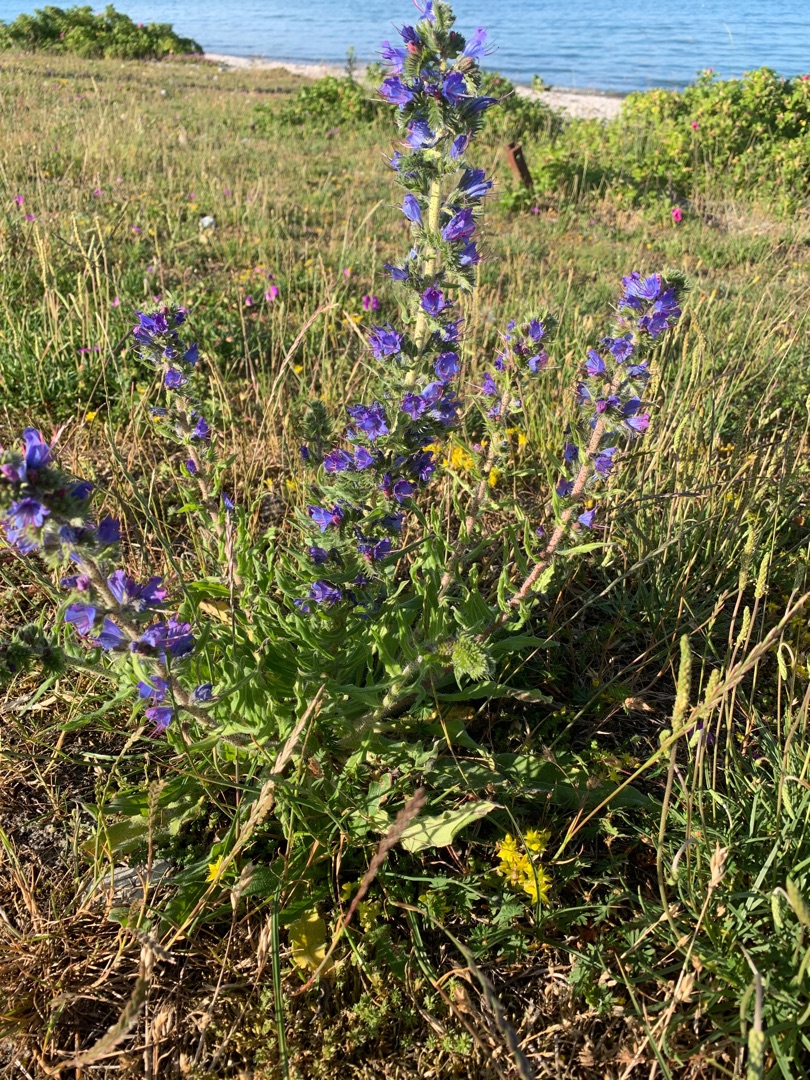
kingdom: Plantae
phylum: Tracheophyta
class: Magnoliopsida
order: Boraginales
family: Boraginaceae
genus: Echium
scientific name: Echium vulgare
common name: Slangehoved
